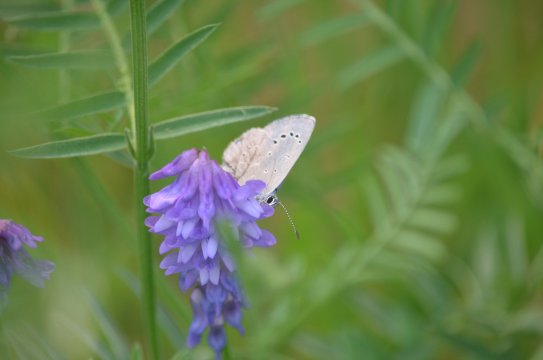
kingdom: Animalia
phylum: Arthropoda
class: Insecta
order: Lepidoptera
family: Lycaenidae
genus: Glaucopsyche
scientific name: Glaucopsyche lygdamus
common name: Silvery Blue
